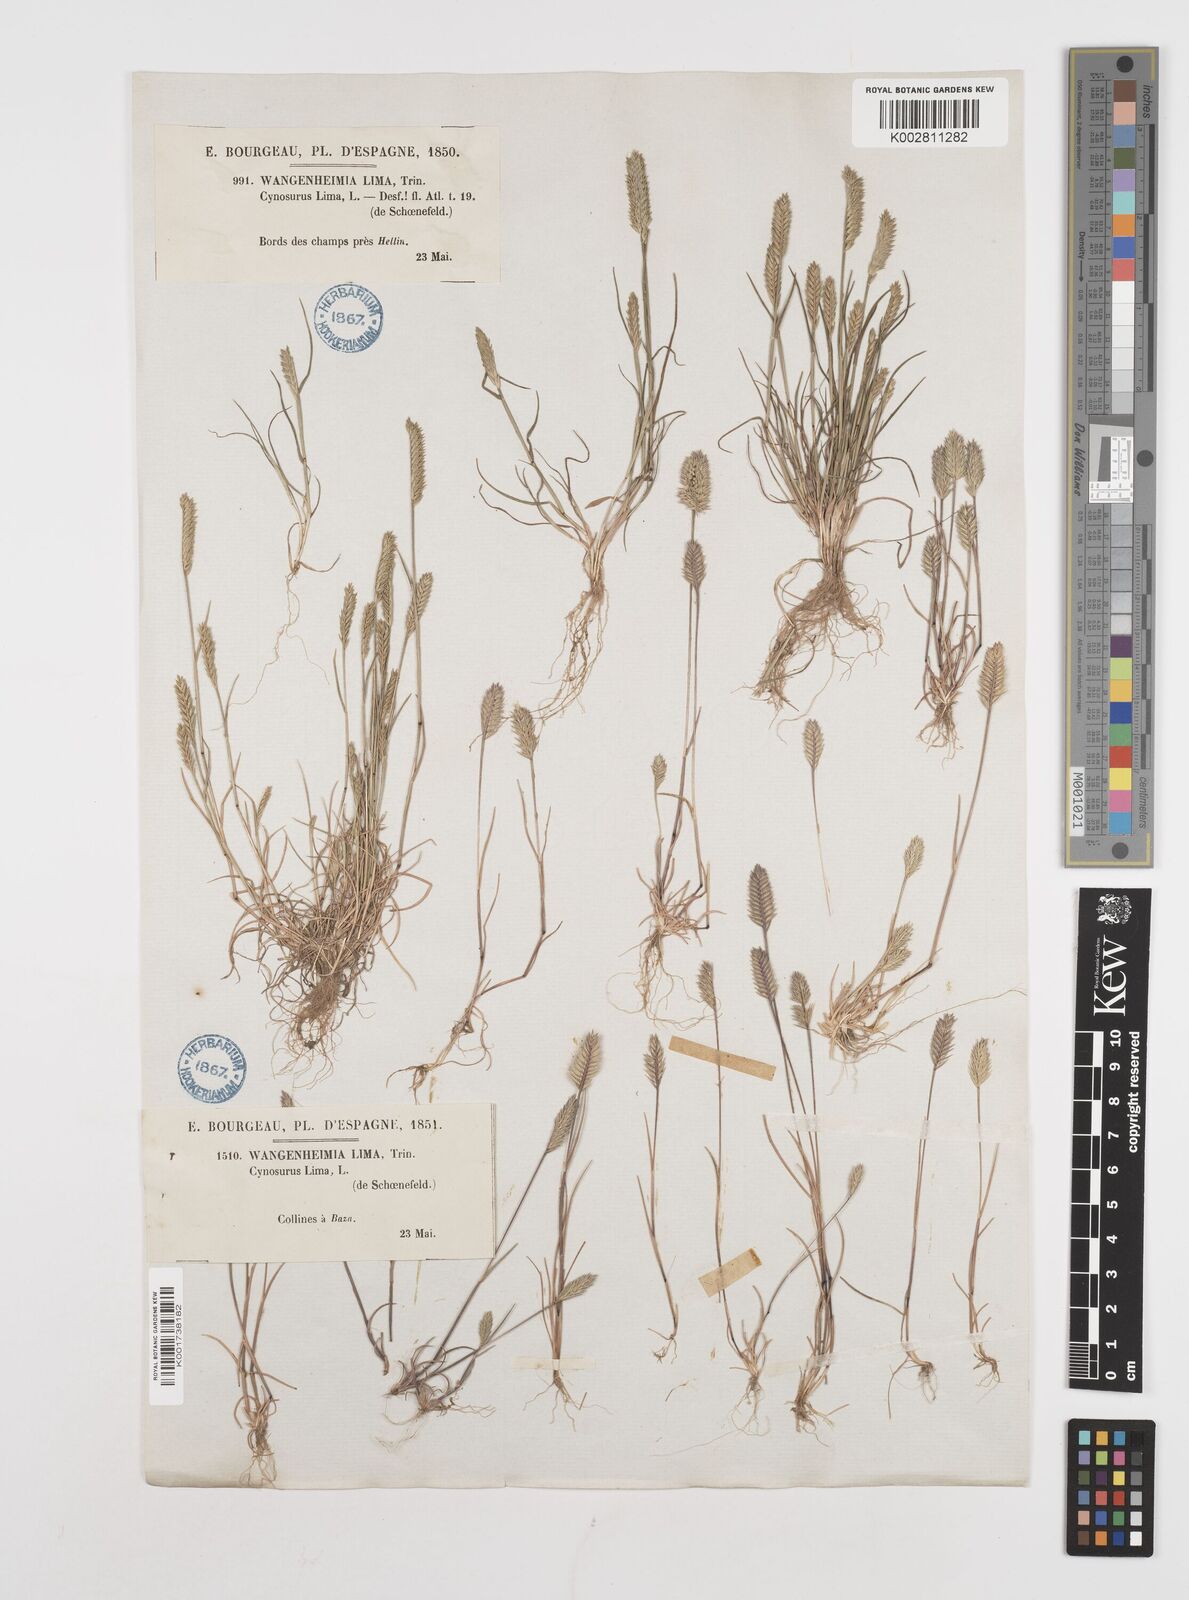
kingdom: Plantae
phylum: Tracheophyta
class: Liliopsida
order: Poales
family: Poaceae
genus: Wangenheimia
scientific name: Wangenheimia lima
